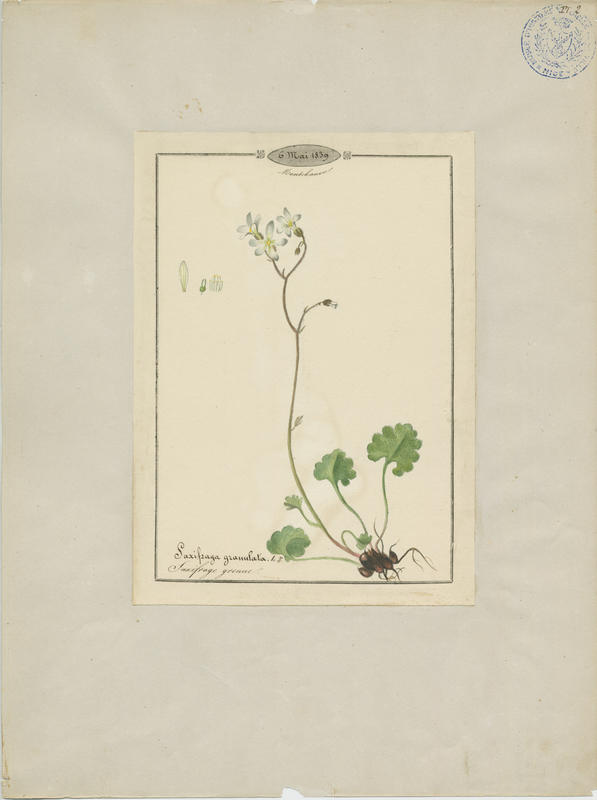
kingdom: Plantae
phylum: Tracheophyta
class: Magnoliopsida
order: Saxifragales
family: Saxifragaceae
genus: Saxifraga
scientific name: Saxifraga granulata
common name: Meadow saxifrage
